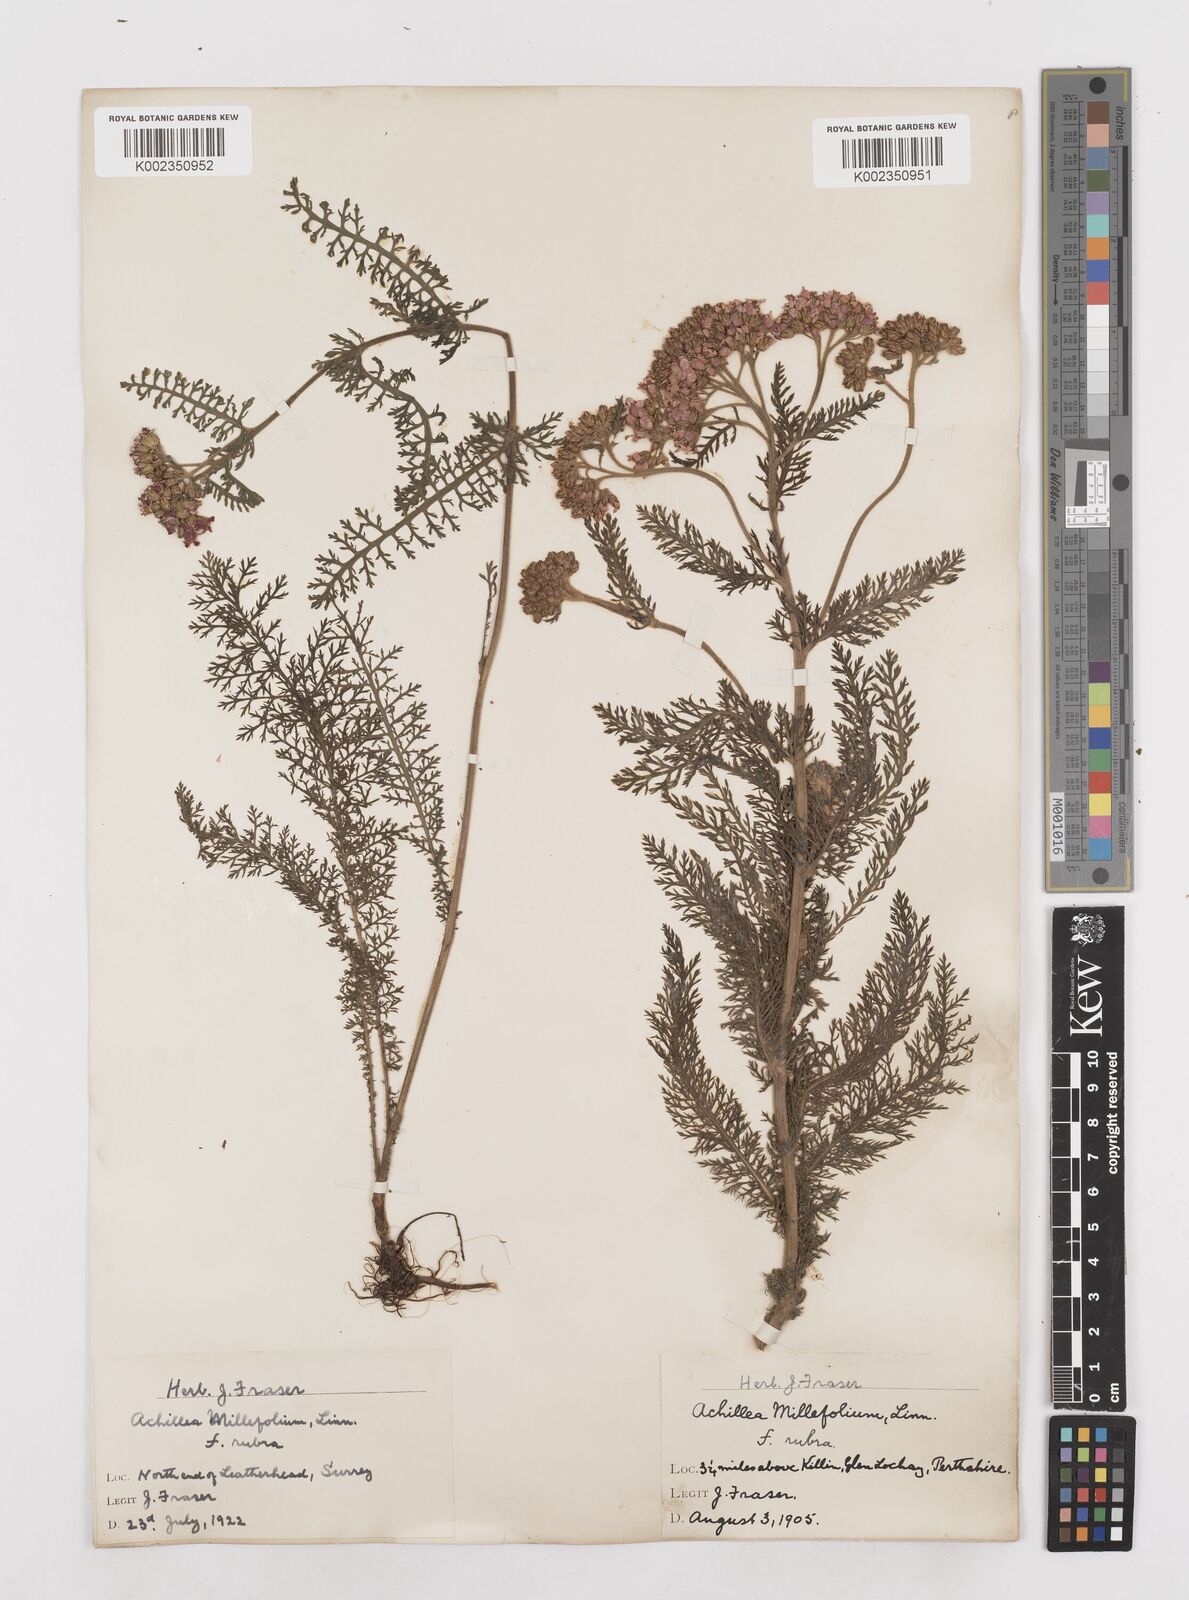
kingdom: Plantae
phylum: Tracheophyta
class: Magnoliopsida
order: Asterales
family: Asteraceae
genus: Achillea
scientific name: Achillea millefolium
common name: Yarrow
